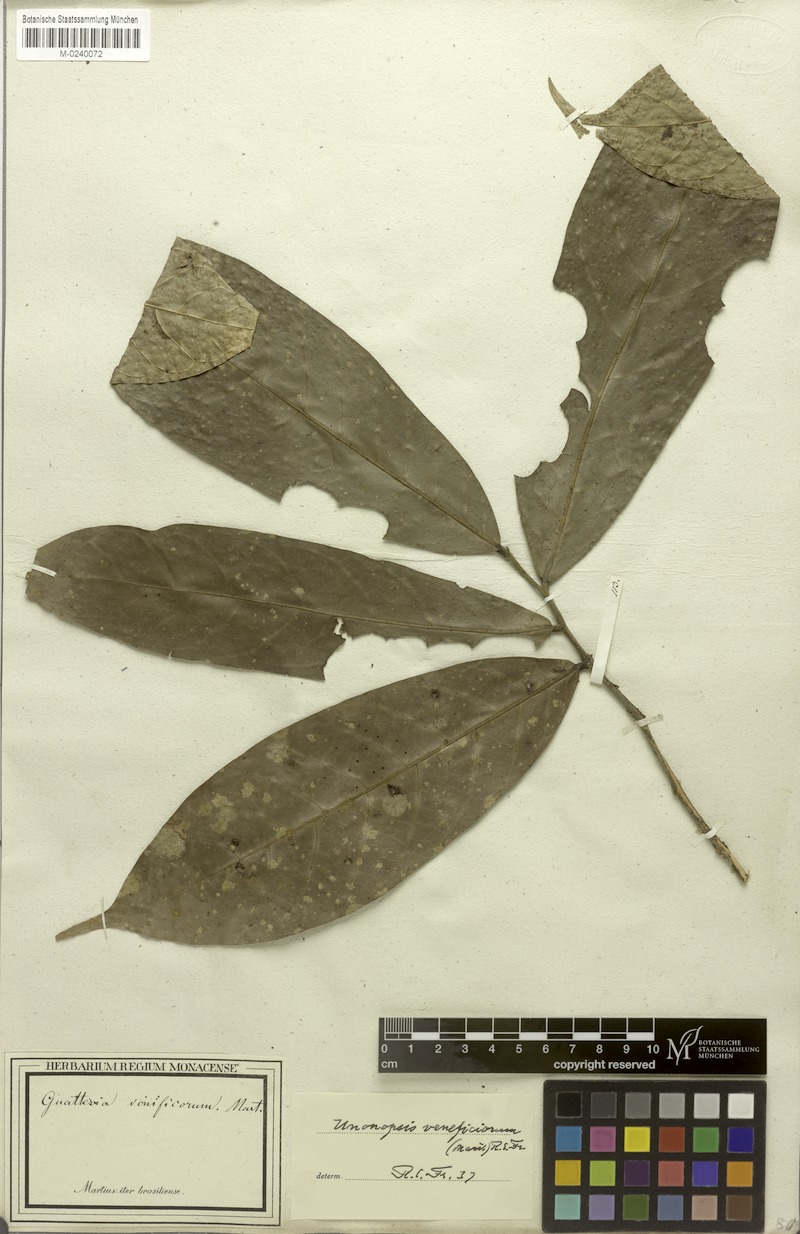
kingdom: Plantae
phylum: Tracheophyta
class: Magnoliopsida
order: Magnoliales
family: Annonaceae
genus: Unonopsis
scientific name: Unonopsis veneficiorum
